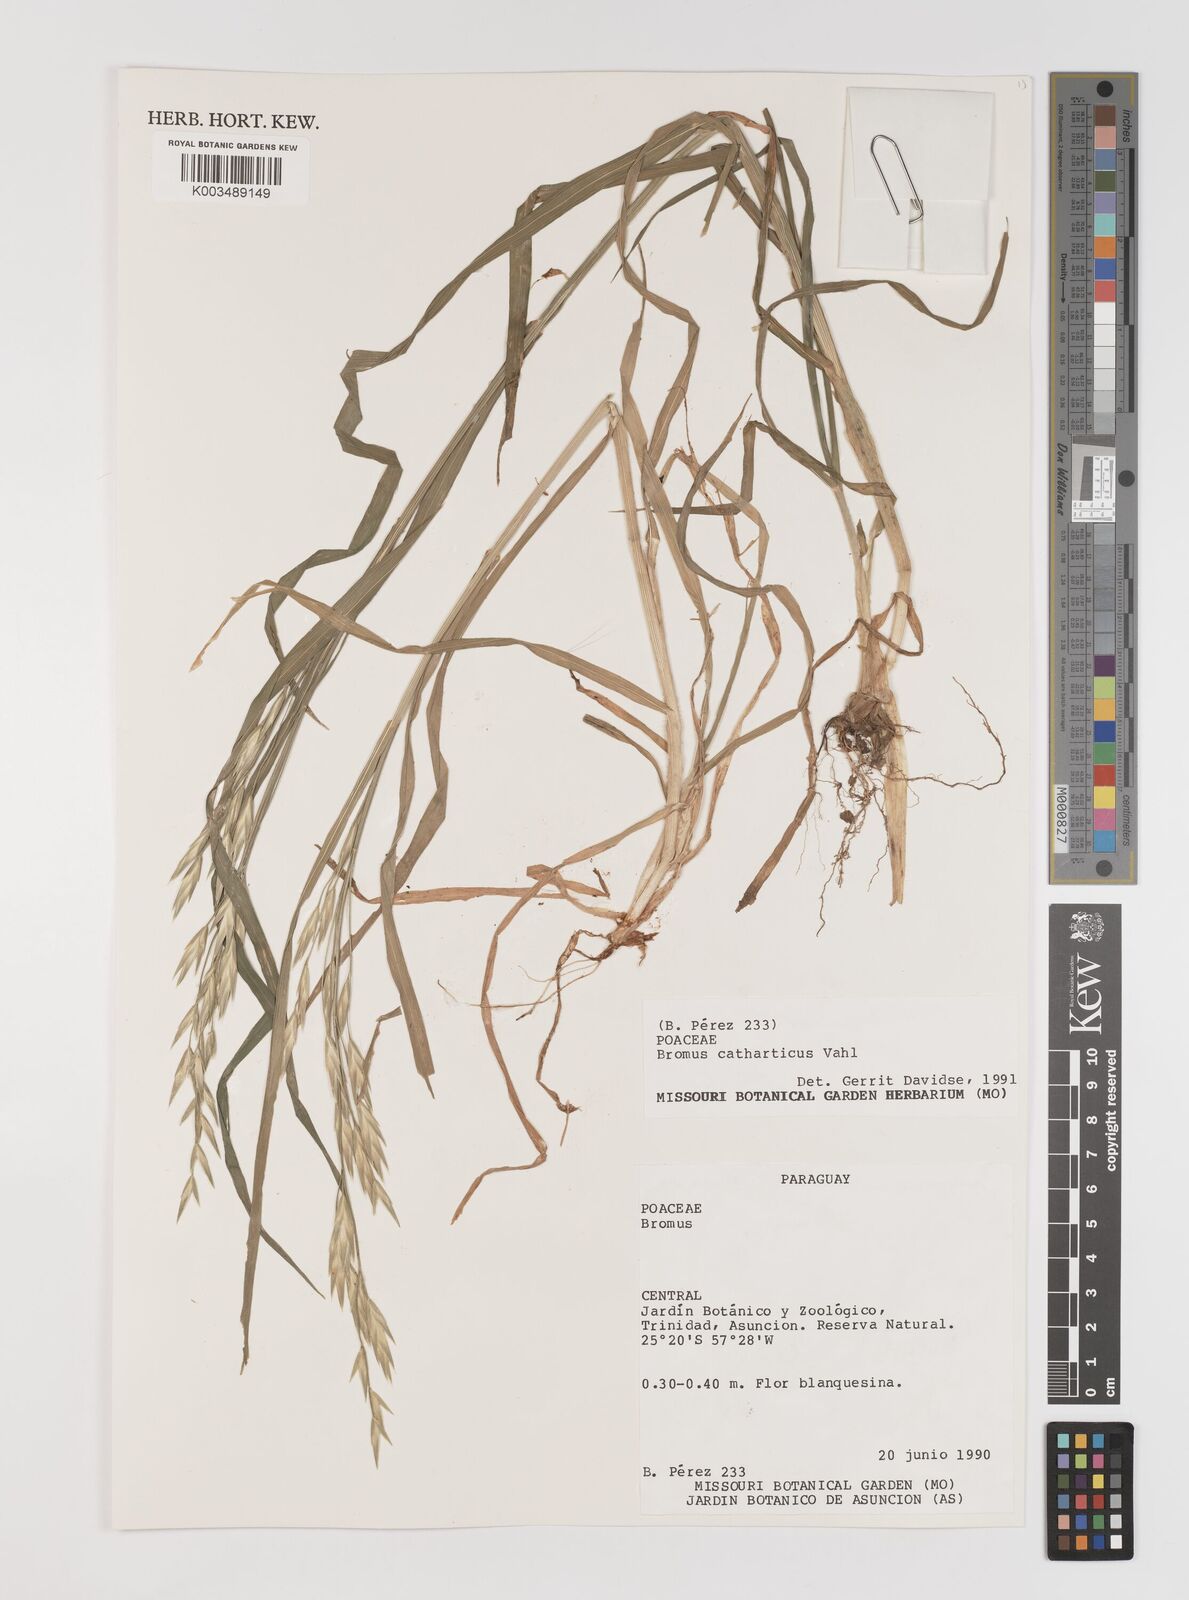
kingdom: Plantae
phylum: Tracheophyta
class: Liliopsida
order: Poales
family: Poaceae
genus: Bromus
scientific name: Bromus catharticus
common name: Rescuegrass
